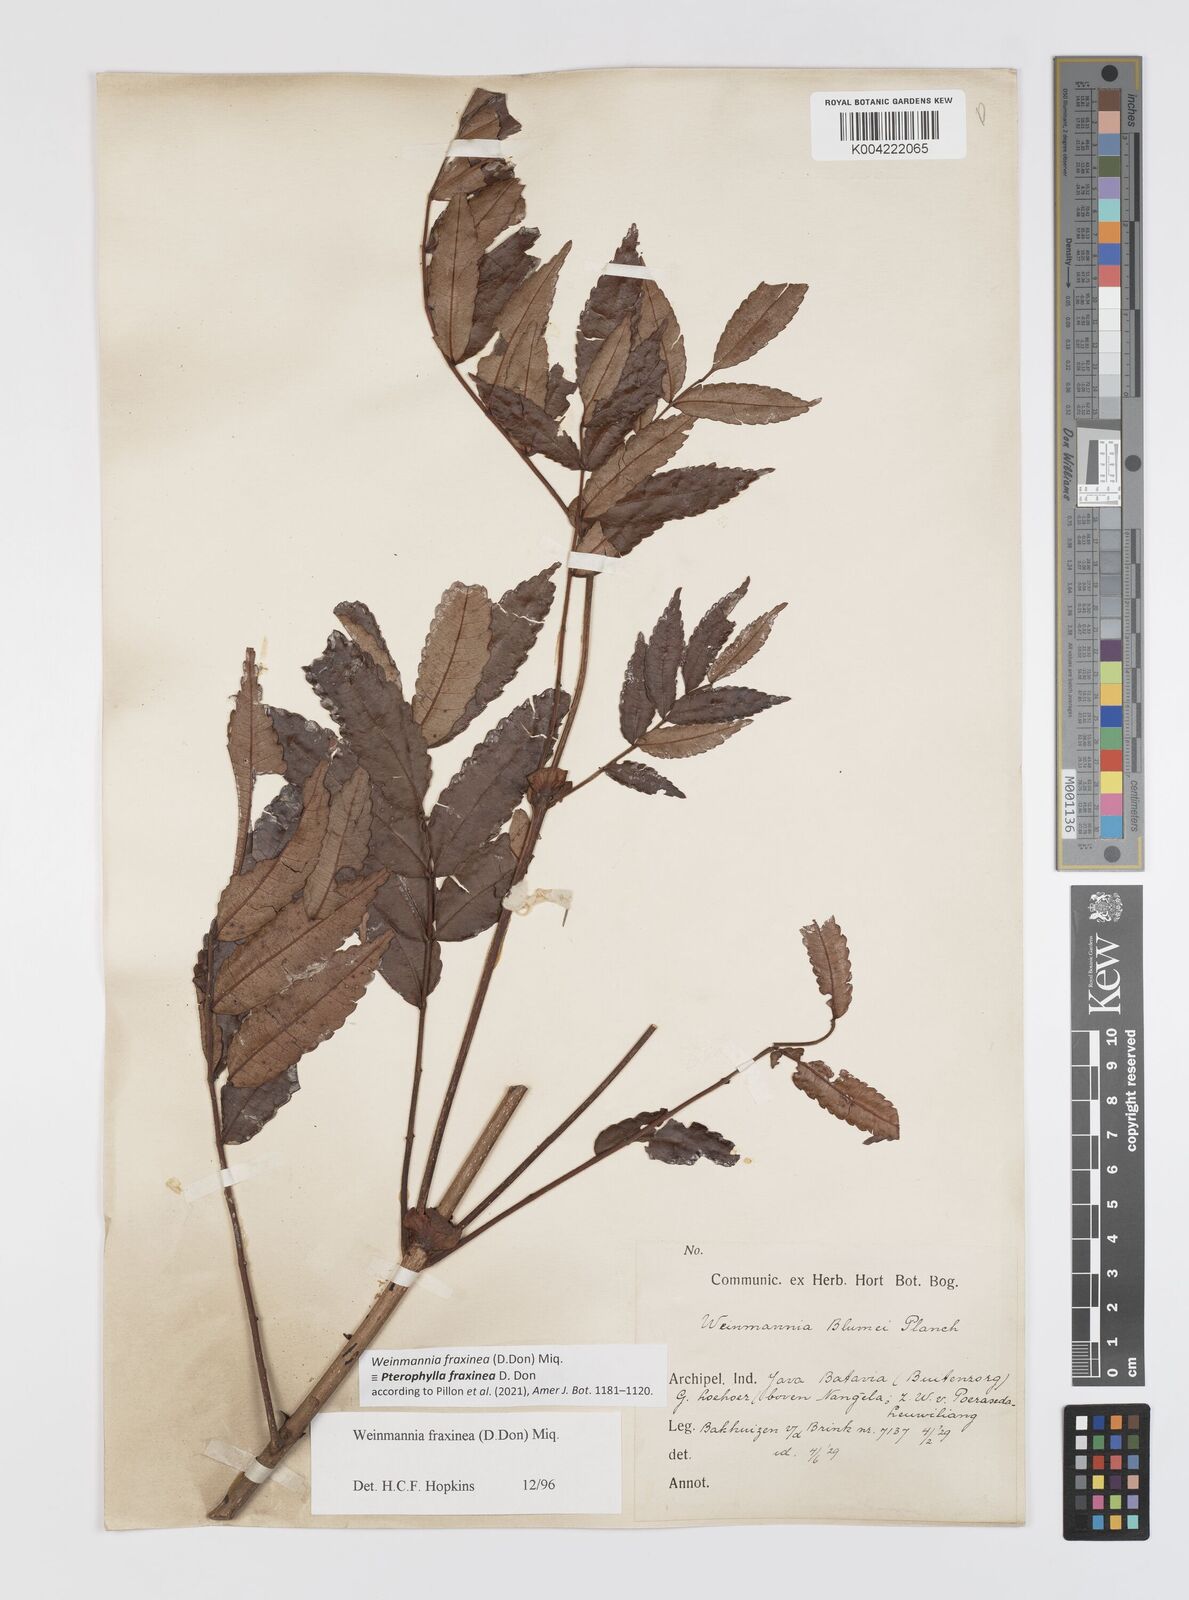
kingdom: Plantae
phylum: Tracheophyta
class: Magnoliopsida
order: Oxalidales
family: Cunoniaceae
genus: Pterophylla
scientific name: Pterophylla fraxinea
